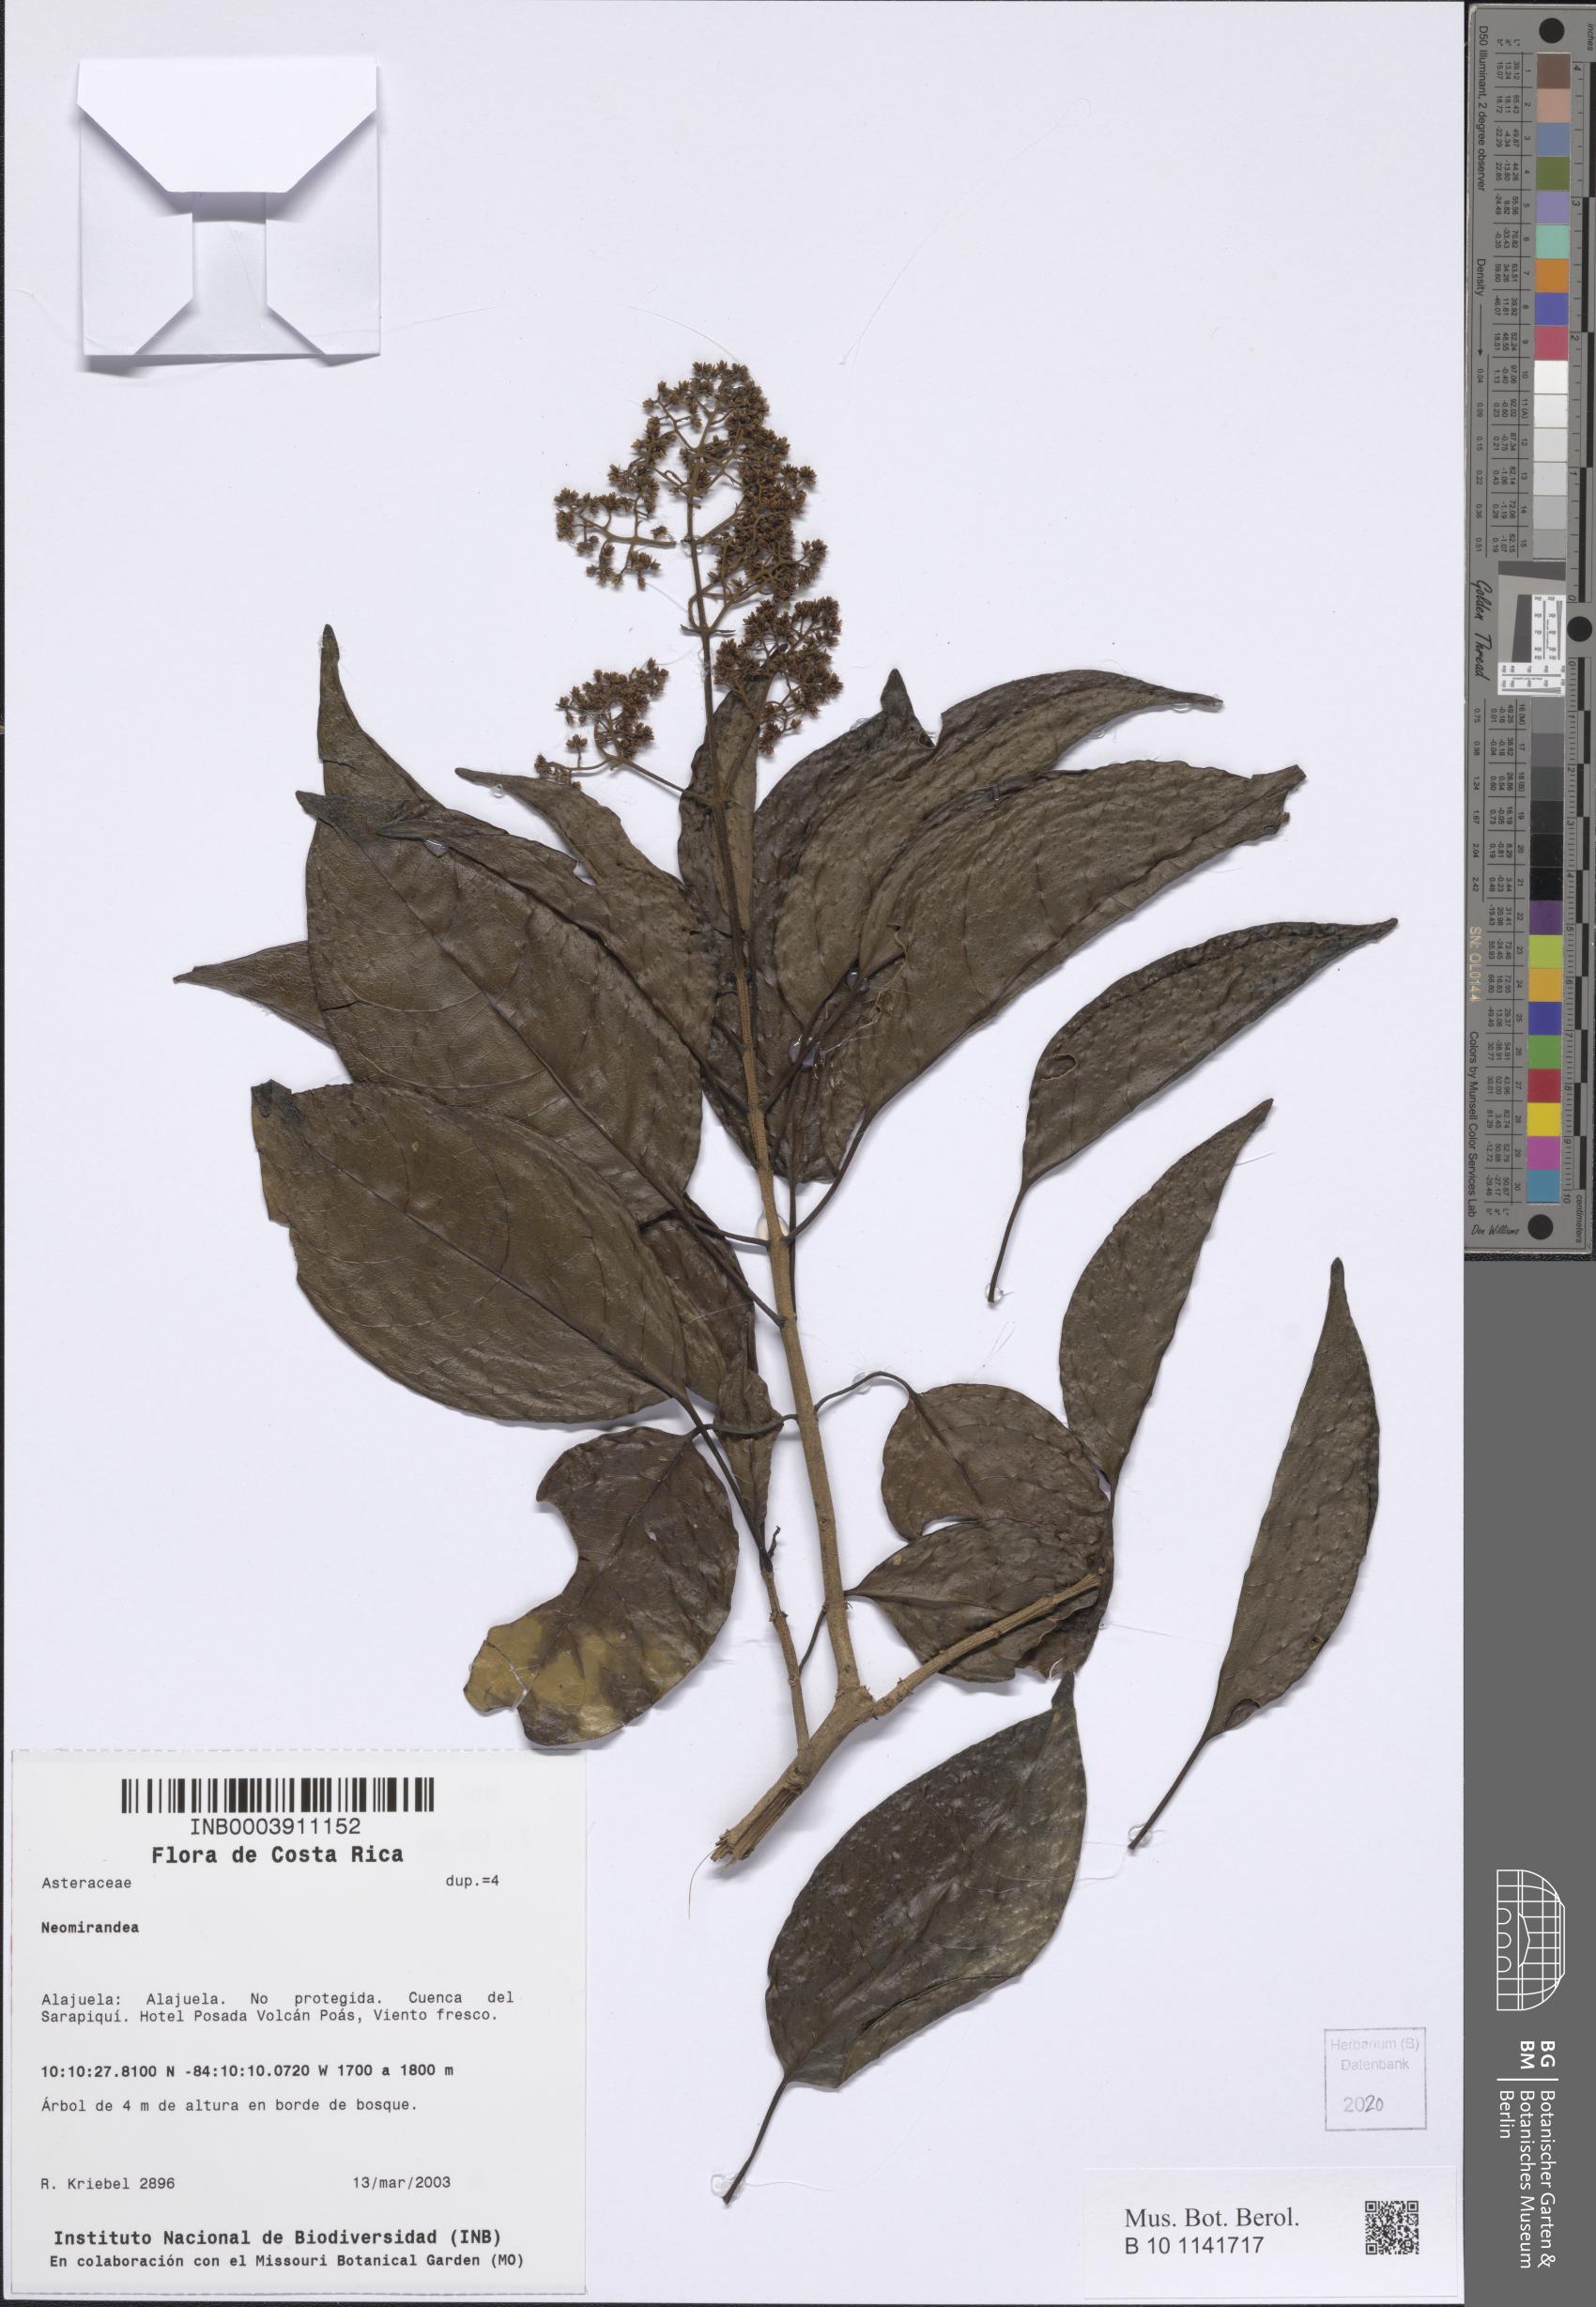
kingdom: Plantae
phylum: Tracheophyta
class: Magnoliopsida
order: Asterales
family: Asteraceae
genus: Neomirandea
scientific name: Neomirandea
